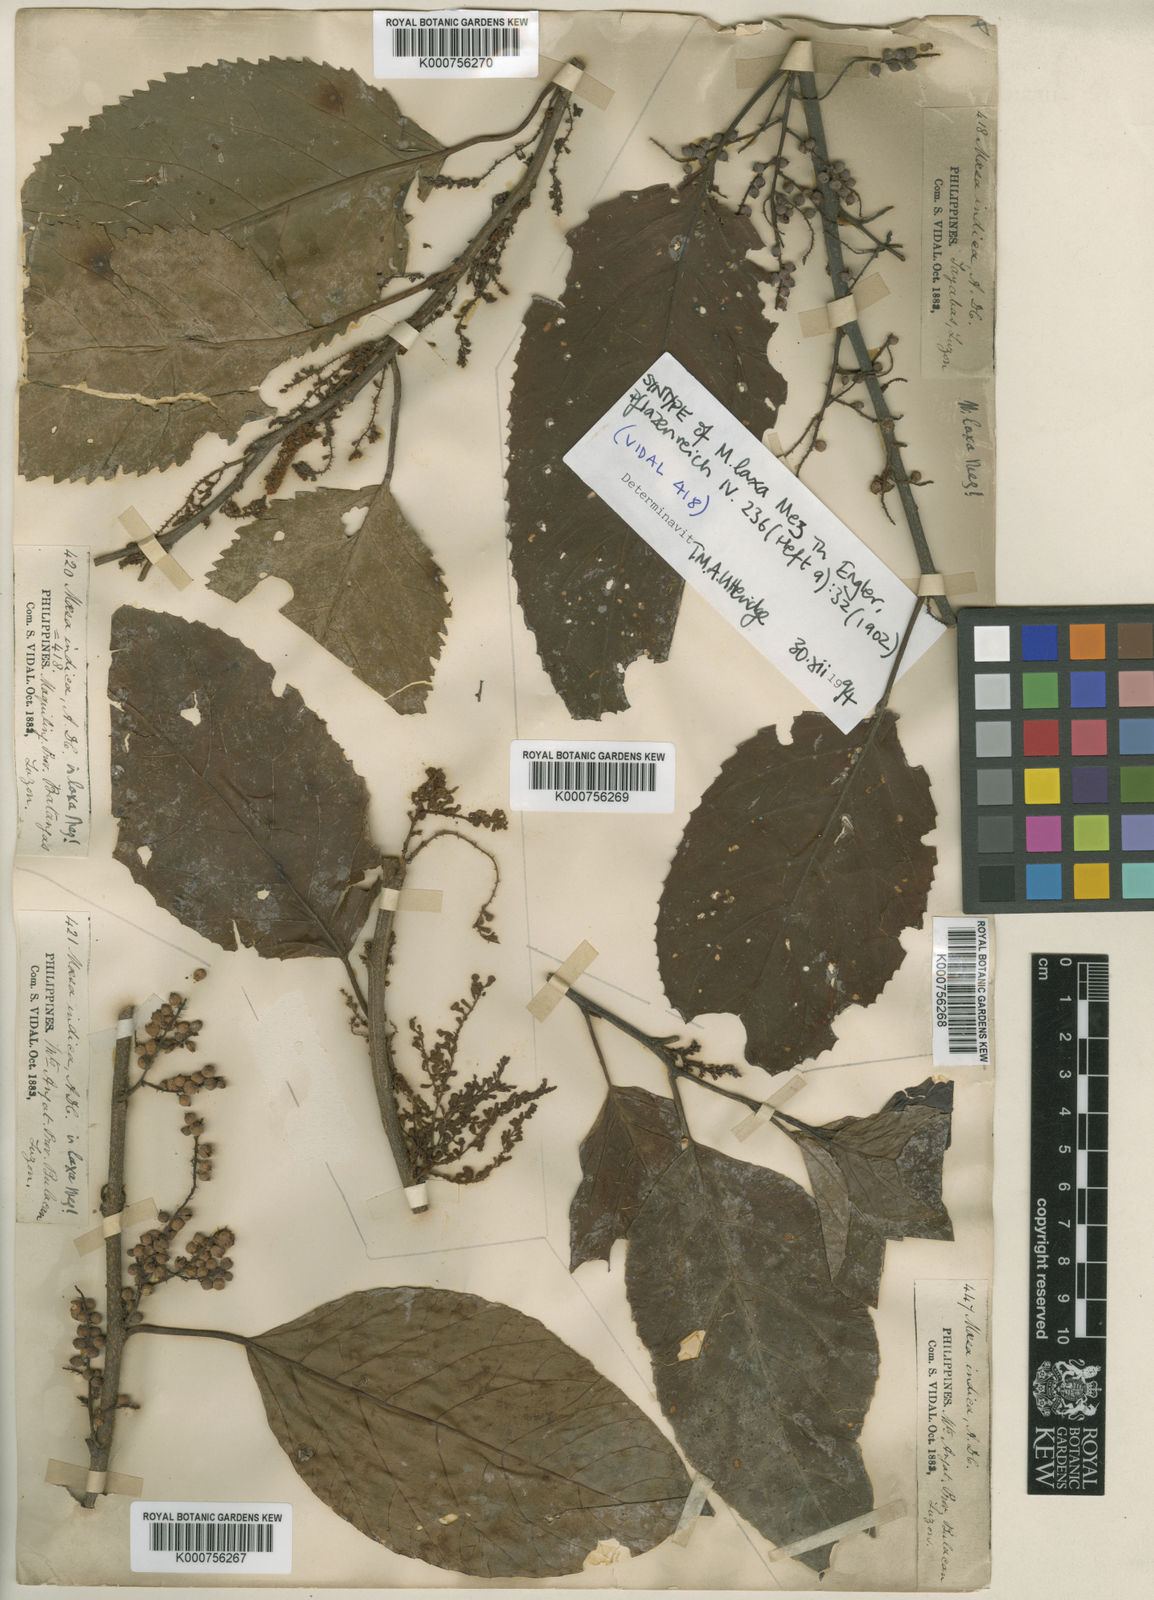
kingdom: Plantae
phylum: Tracheophyta
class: Magnoliopsida
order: Ericales
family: Primulaceae
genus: Maesa
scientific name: Maesa indica
